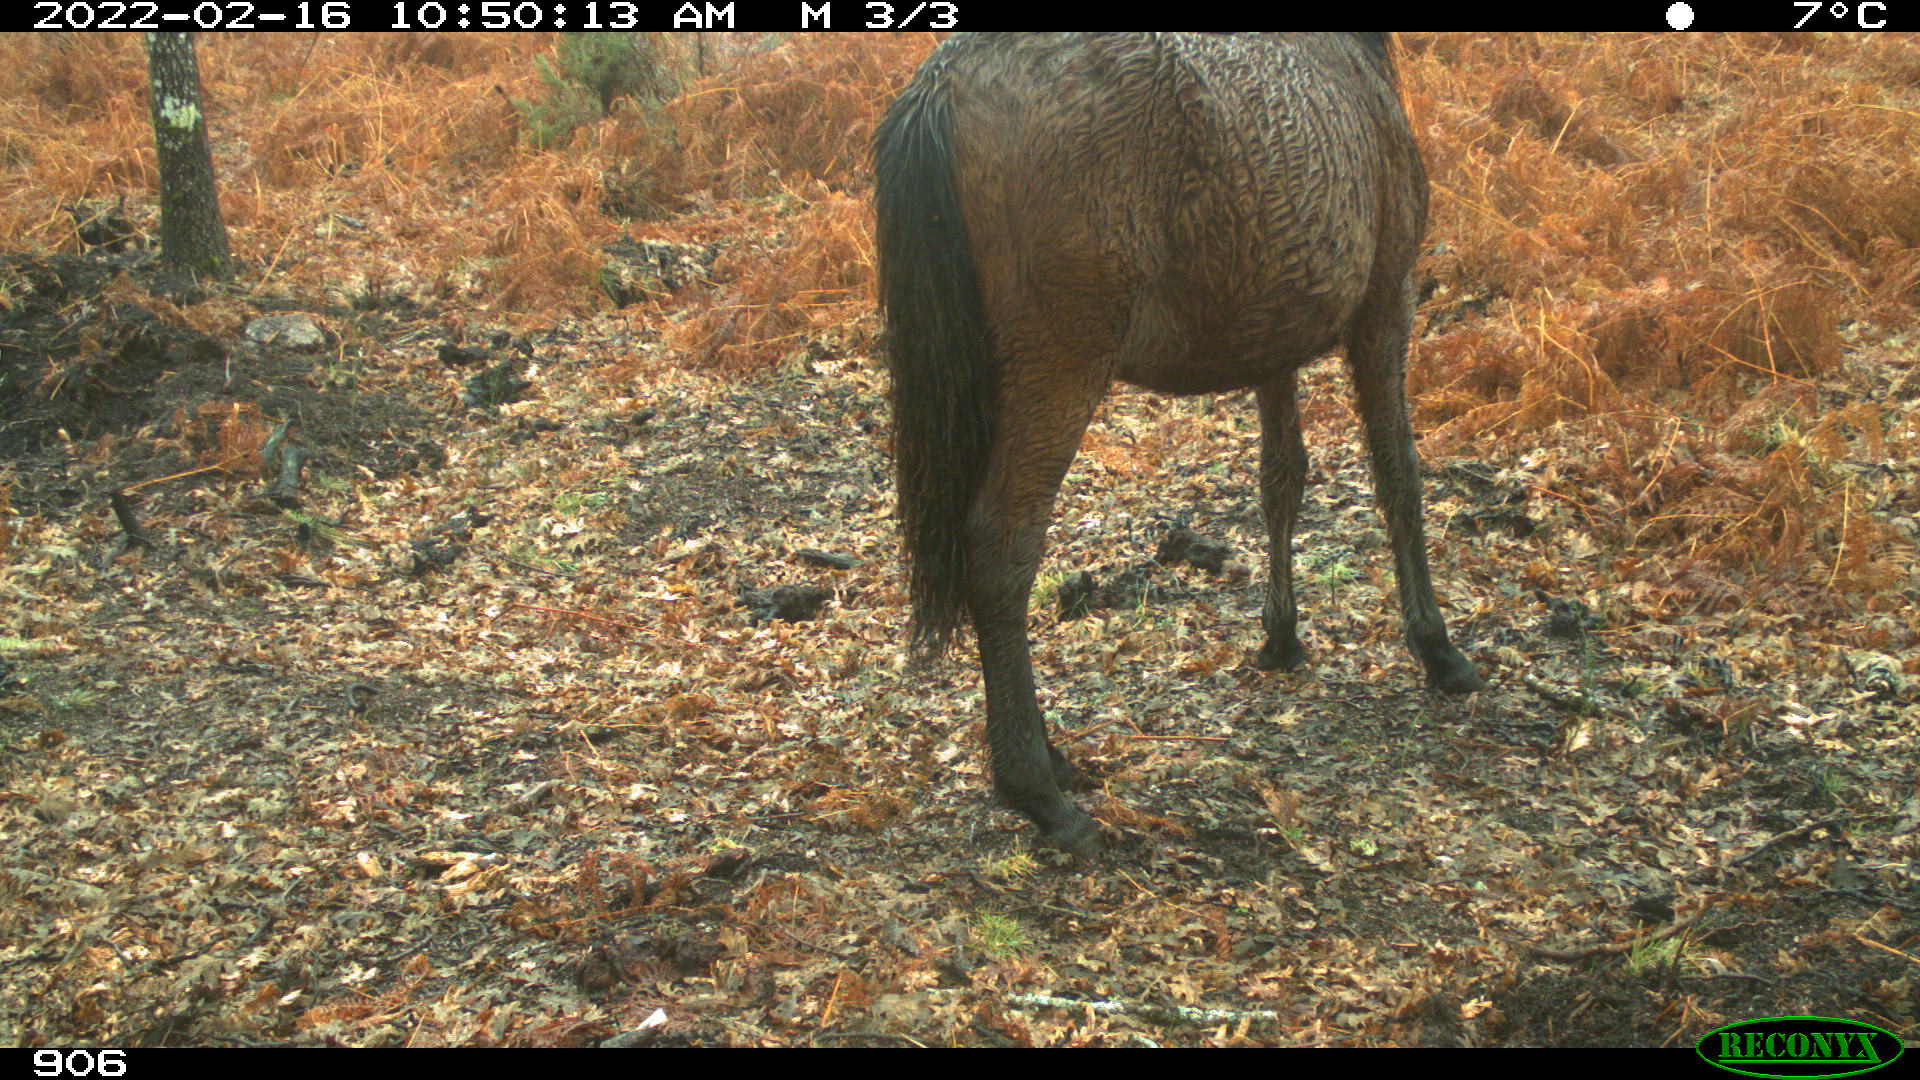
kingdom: Animalia
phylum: Chordata
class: Mammalia
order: Perissodactyla
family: Equidae
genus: Equus
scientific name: Equus caballus
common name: Horse
